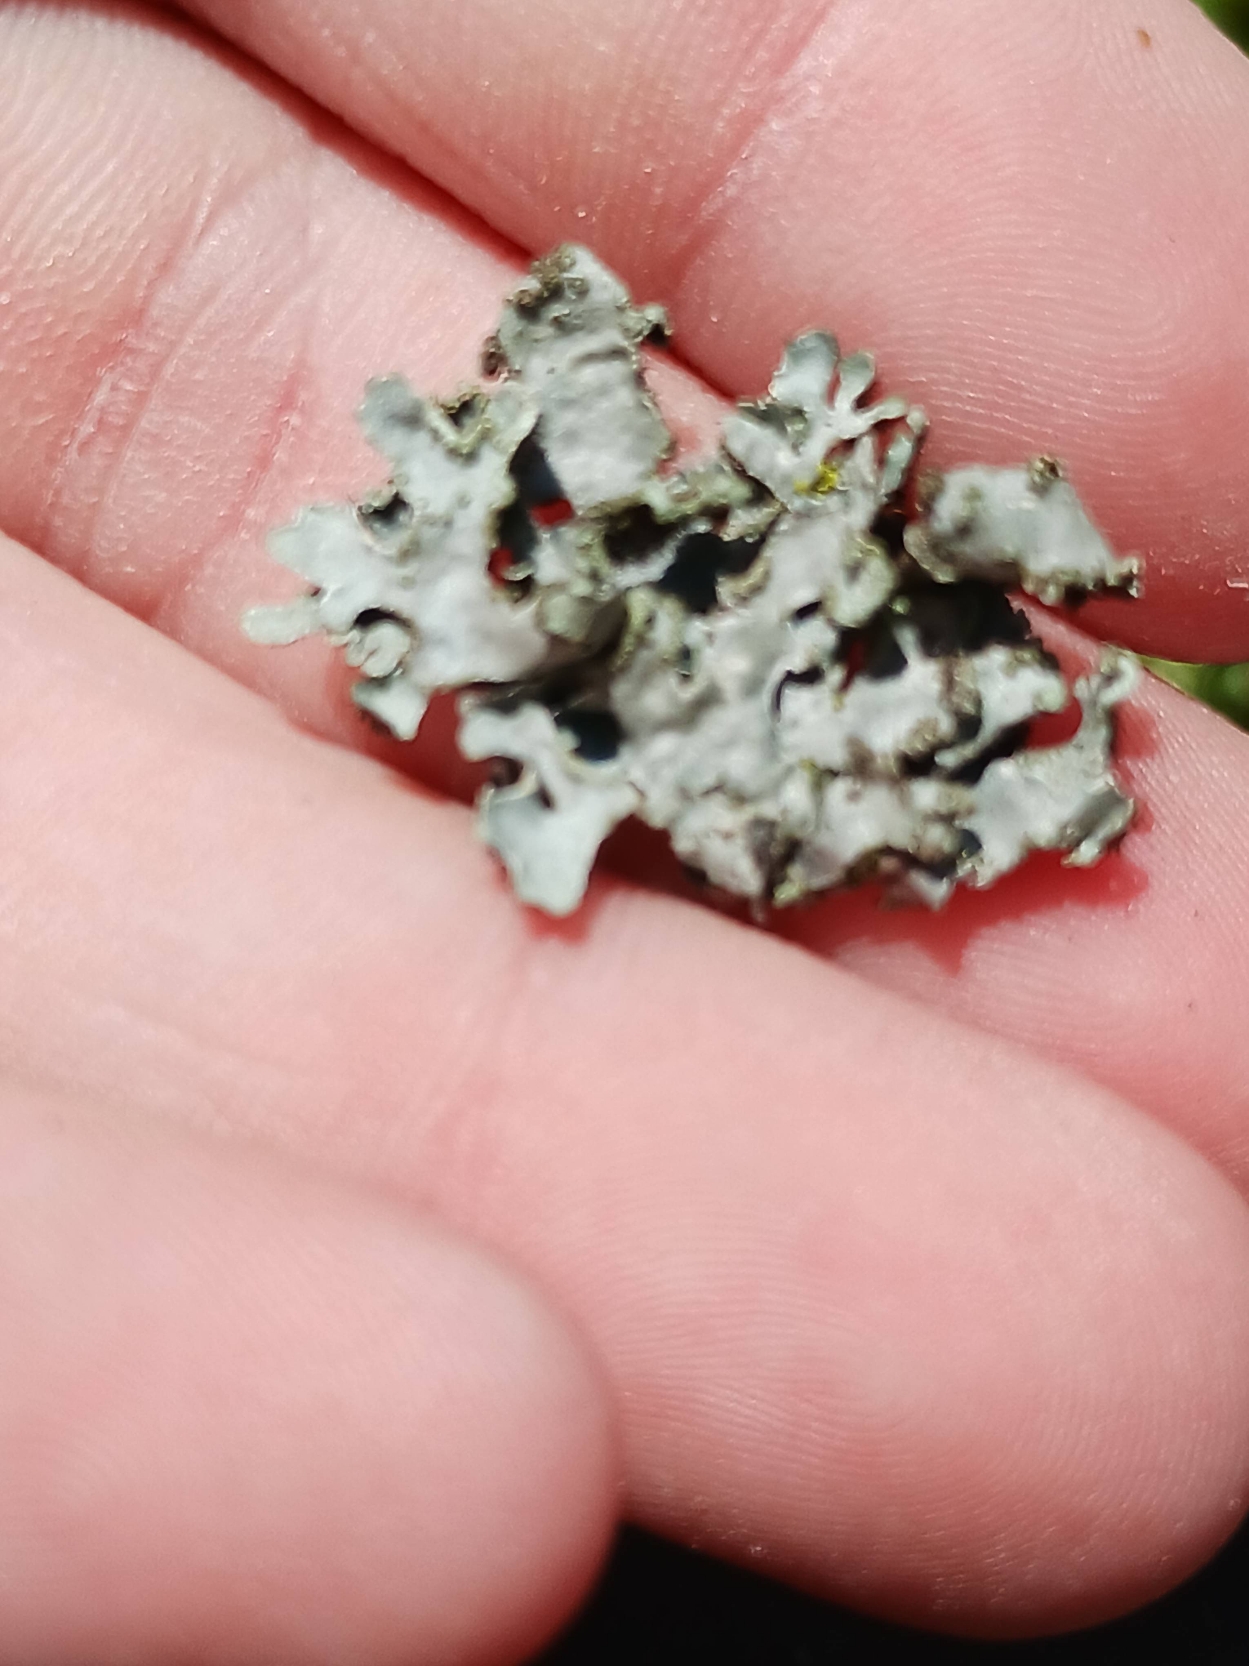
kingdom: Fungi
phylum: Ascomycota
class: Lecanoromycetes
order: Lecanorales
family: Parmeliaceae
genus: Parmelia
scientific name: Parmelia sulcata
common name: Rynket skållav
